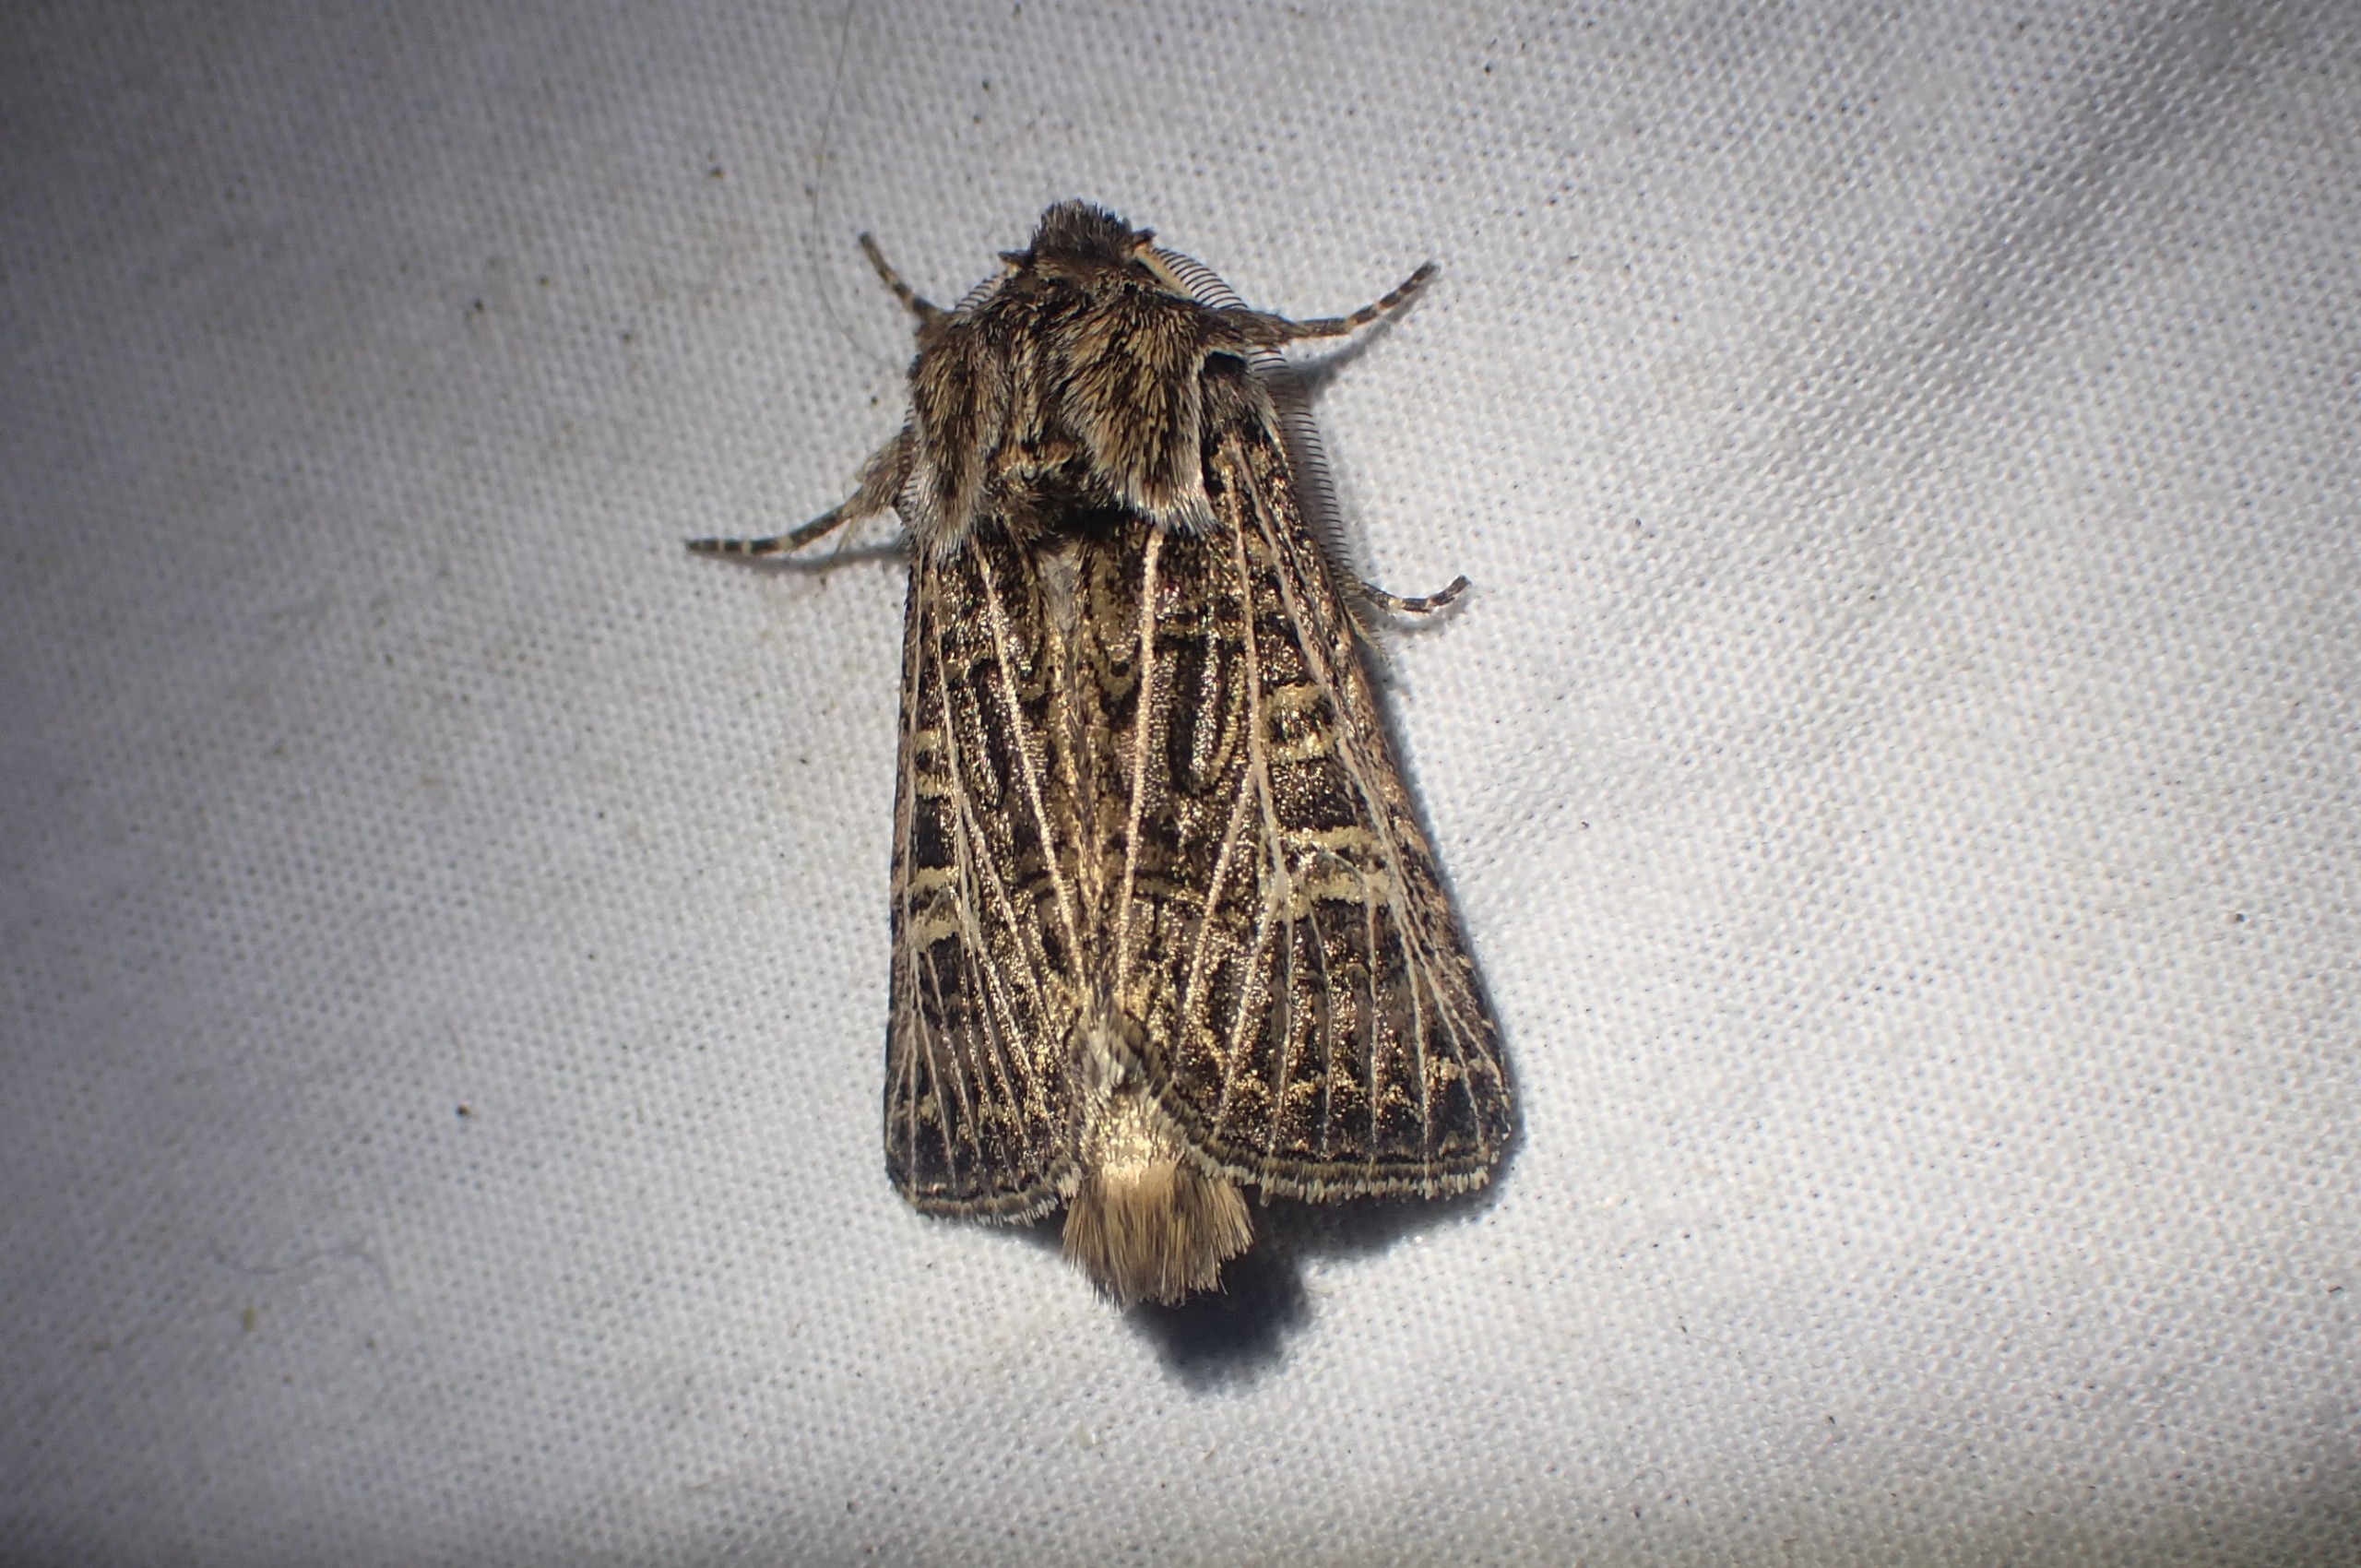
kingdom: Animalia
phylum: Arthropoda
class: Insecta
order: Lepidoptera
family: Noctuidae
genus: Tholera
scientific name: Tholera decimalis
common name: Hvidåret græsugle
